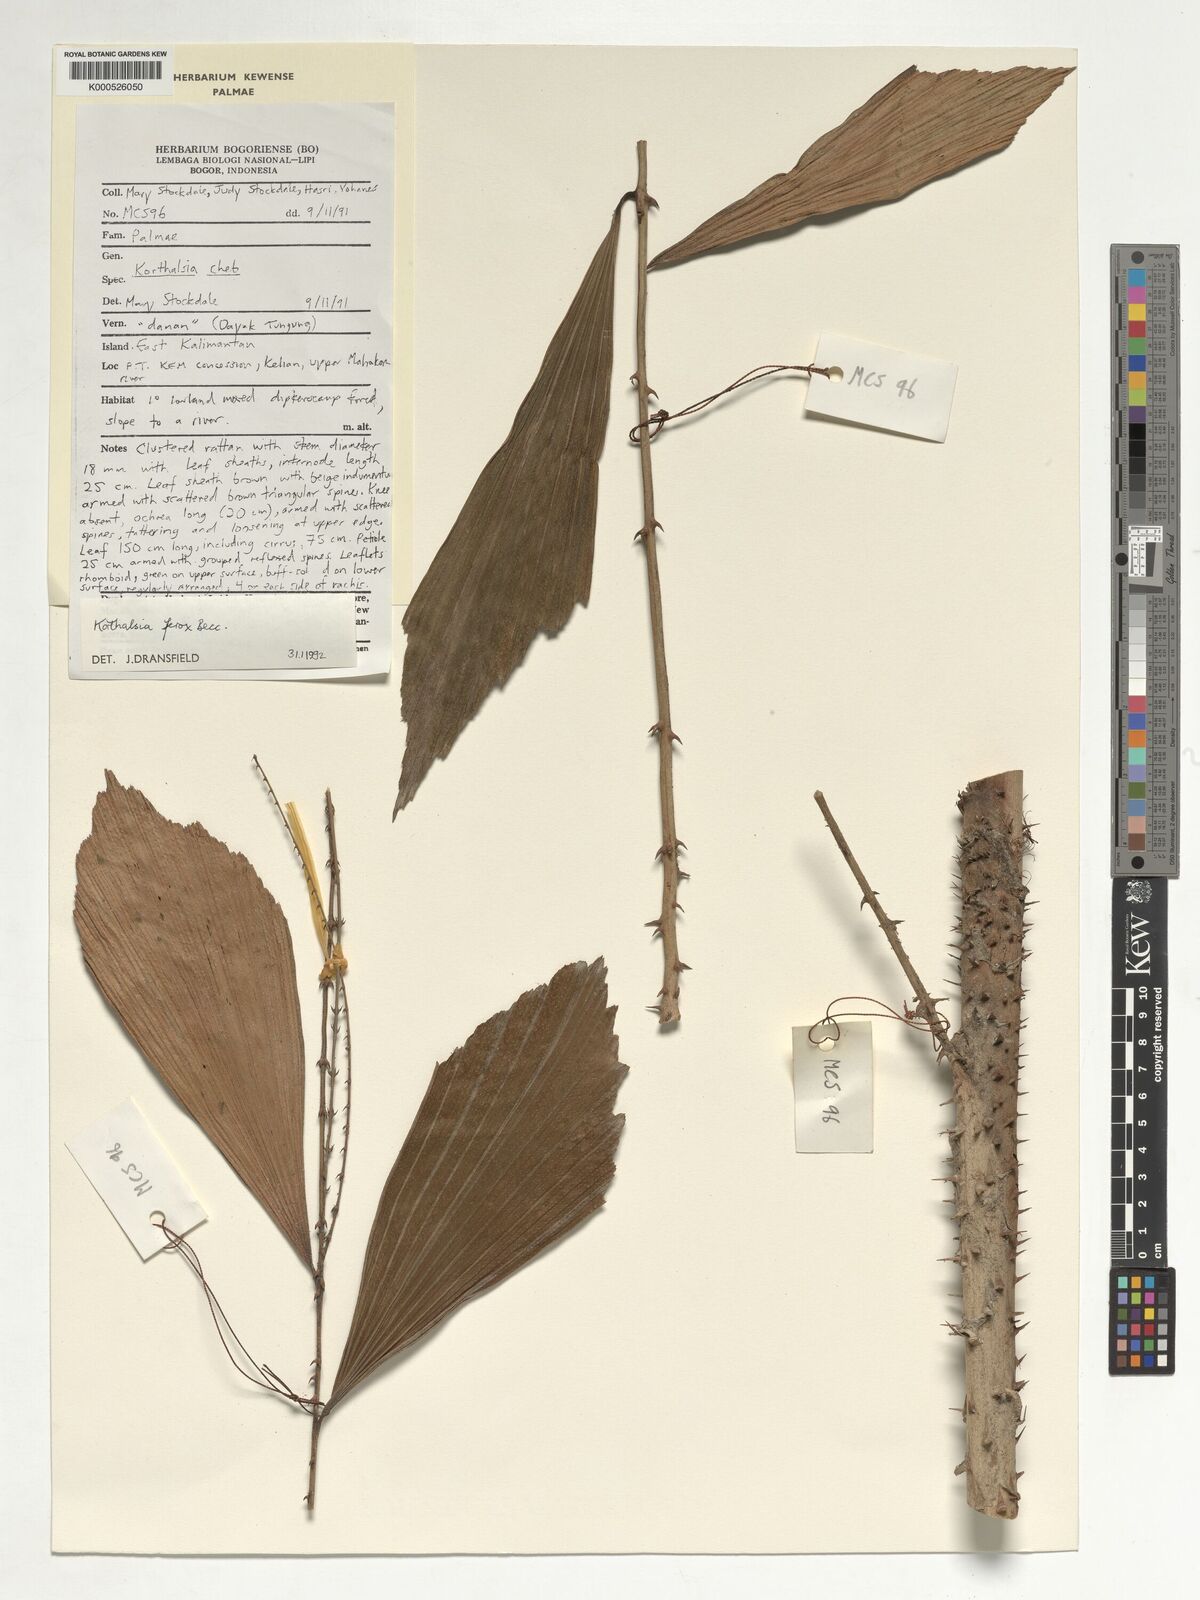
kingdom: Plantae
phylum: Tracheophyta
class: Liliopsida
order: Arecales
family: Arecaceae
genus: Korthalsia
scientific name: Korthalsia ferox
